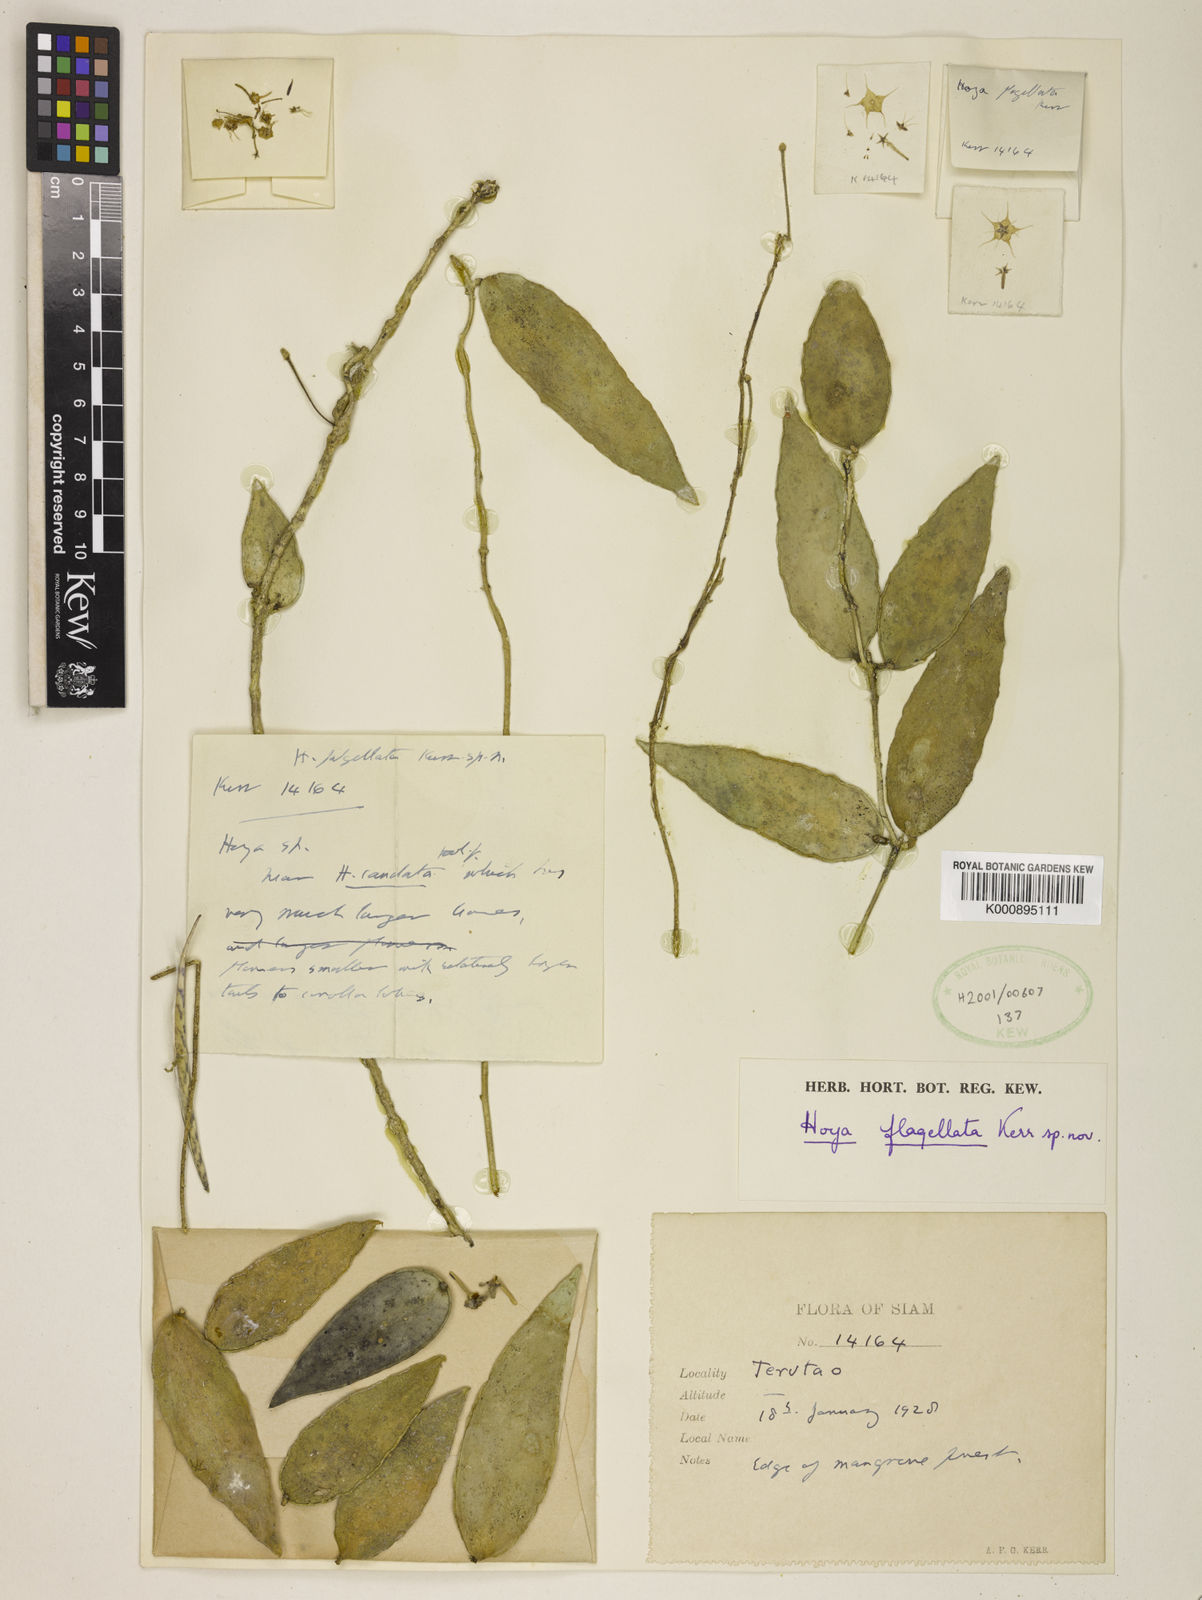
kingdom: Plantae
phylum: Tracheophyta
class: Magnoliopsida
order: Gentianales
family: Apocynaceae
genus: Hoya
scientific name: Hoya caudata
